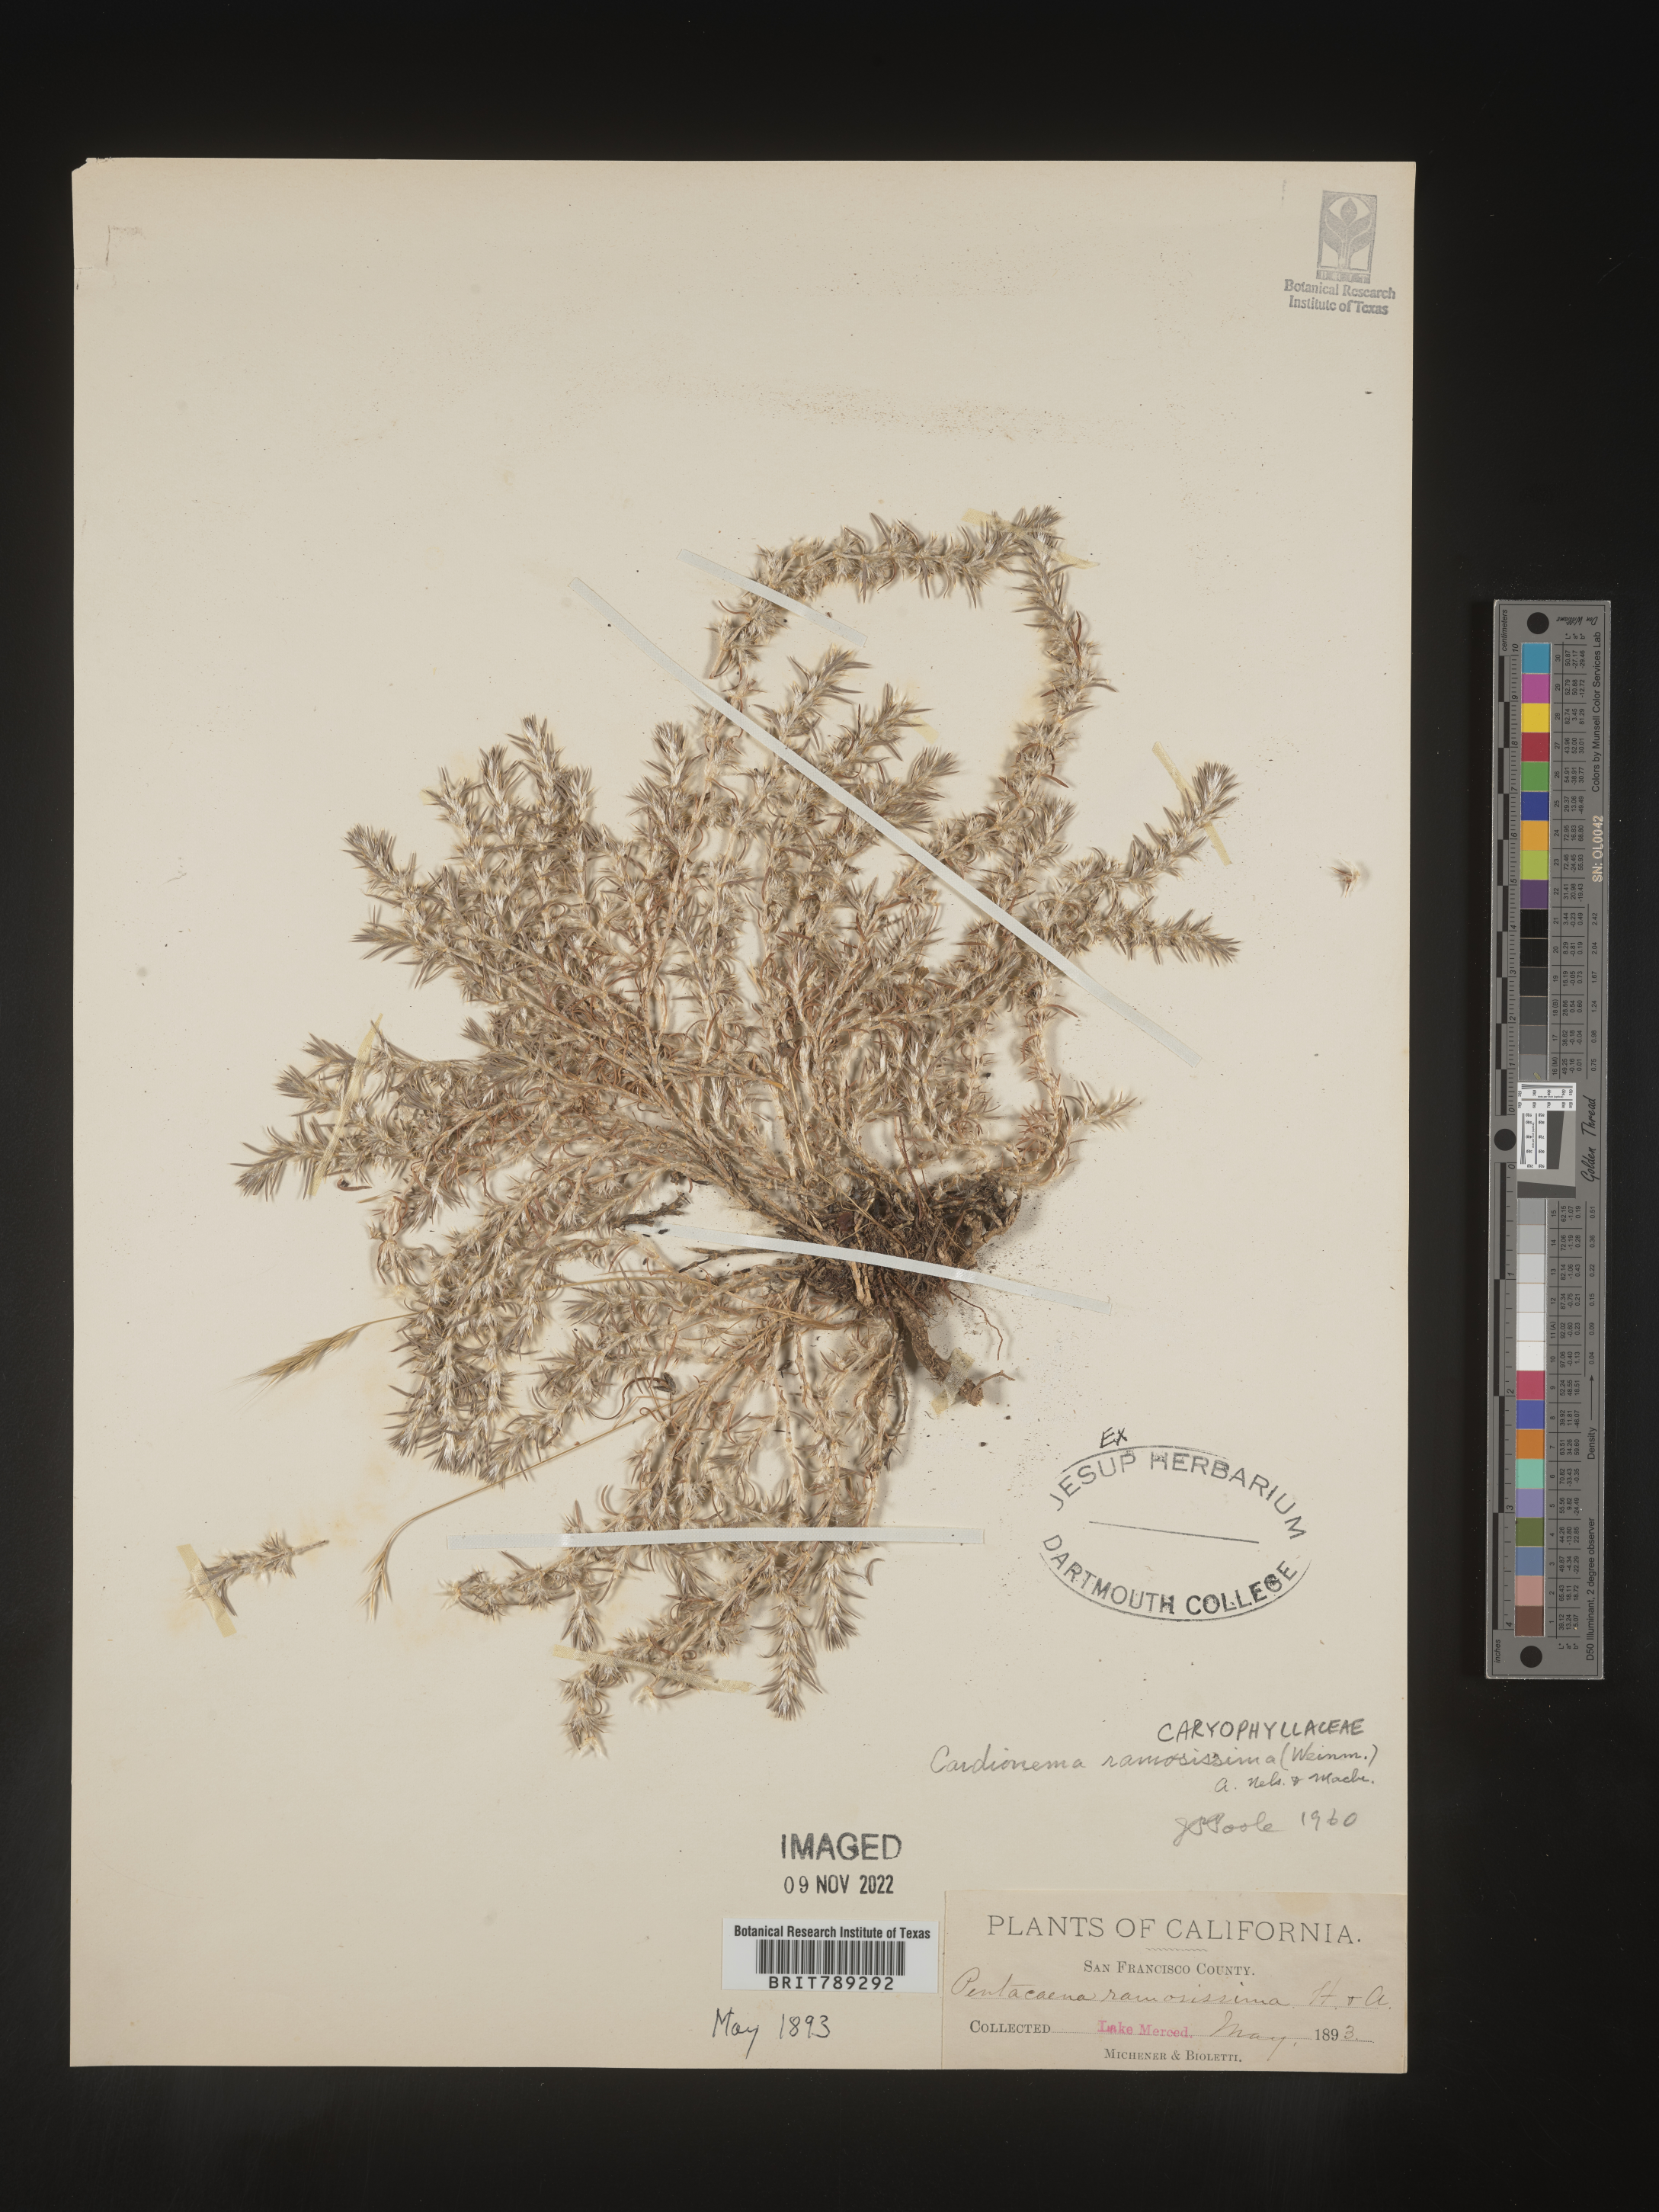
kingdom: Plantae
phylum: Tracheophyta
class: Magnoliopsida
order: Caryophyllales
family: Caryophyllaceae
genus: Cardionema
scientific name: Cardionema
